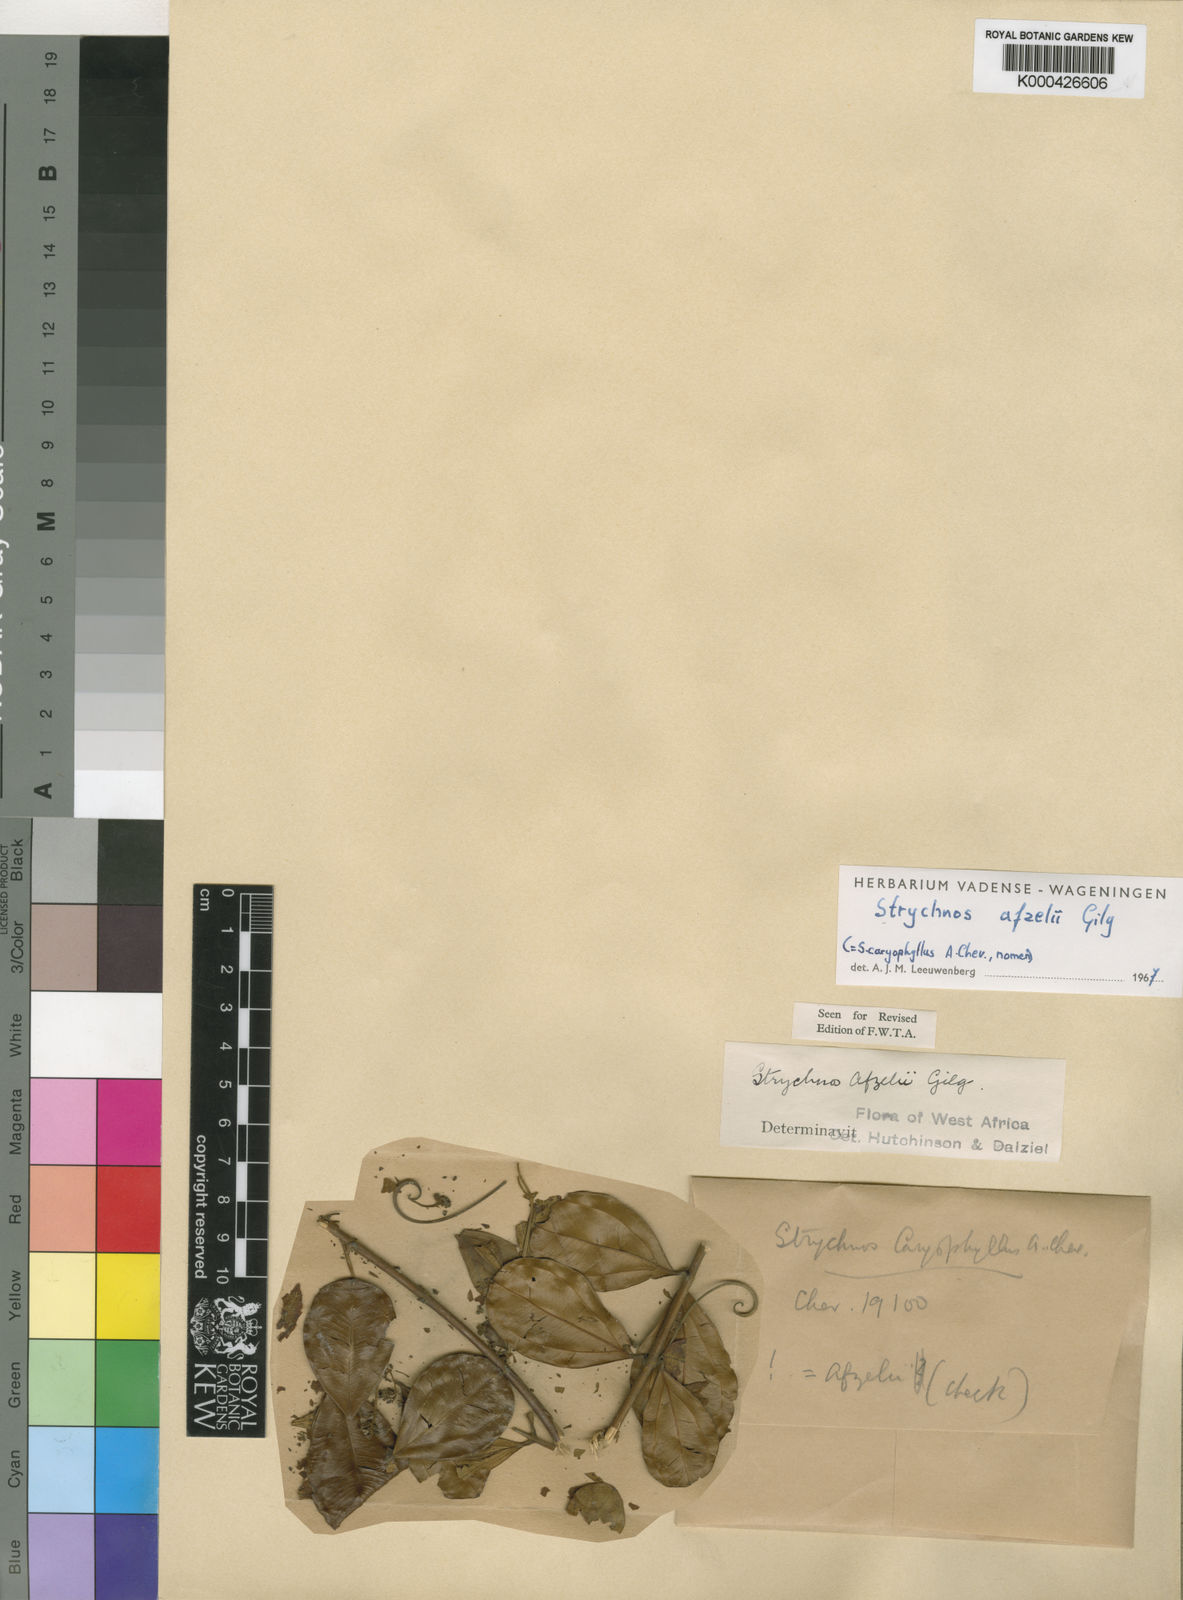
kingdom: Plantae
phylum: Tracheophyta
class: Magnoliopsida
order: Gentianales
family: Loganiaceae
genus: Strychnos
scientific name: Strychnos afzelii
